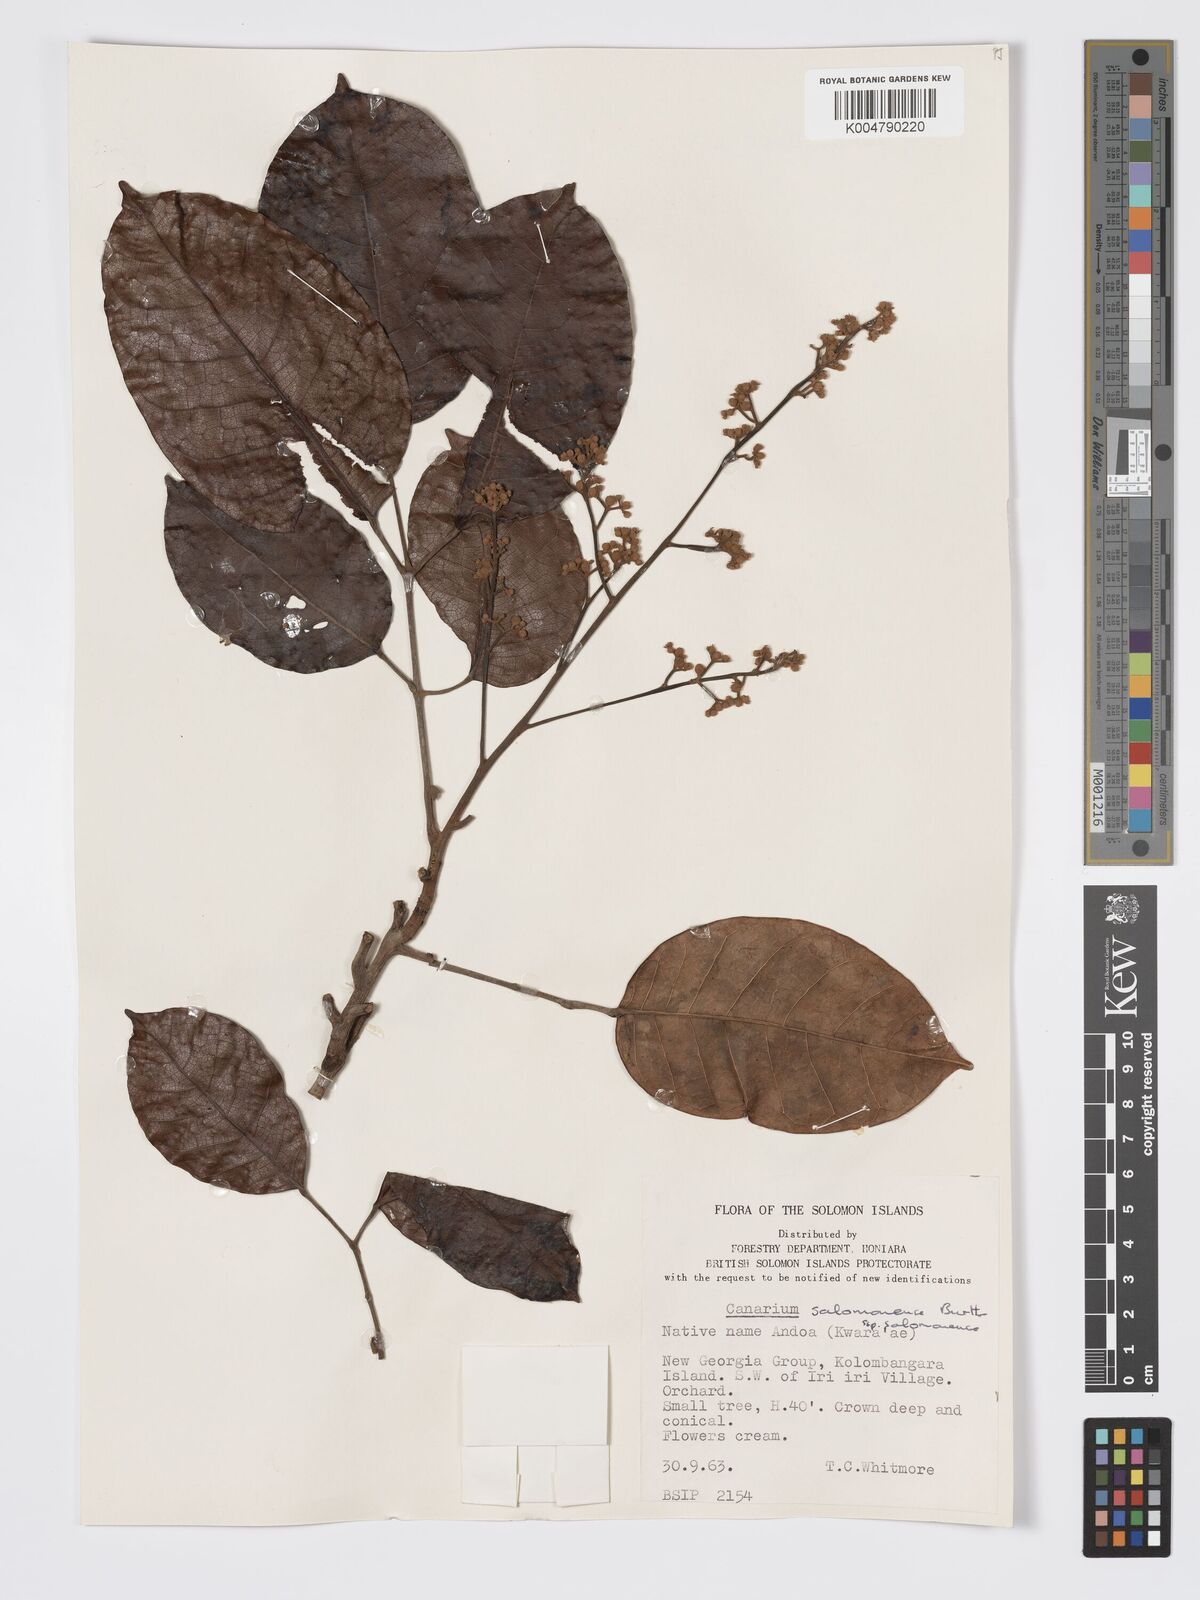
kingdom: Plantae
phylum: Tracheophyta
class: Magnoliopsida
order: Sapindales
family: Burseraceae
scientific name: Burseraceae
